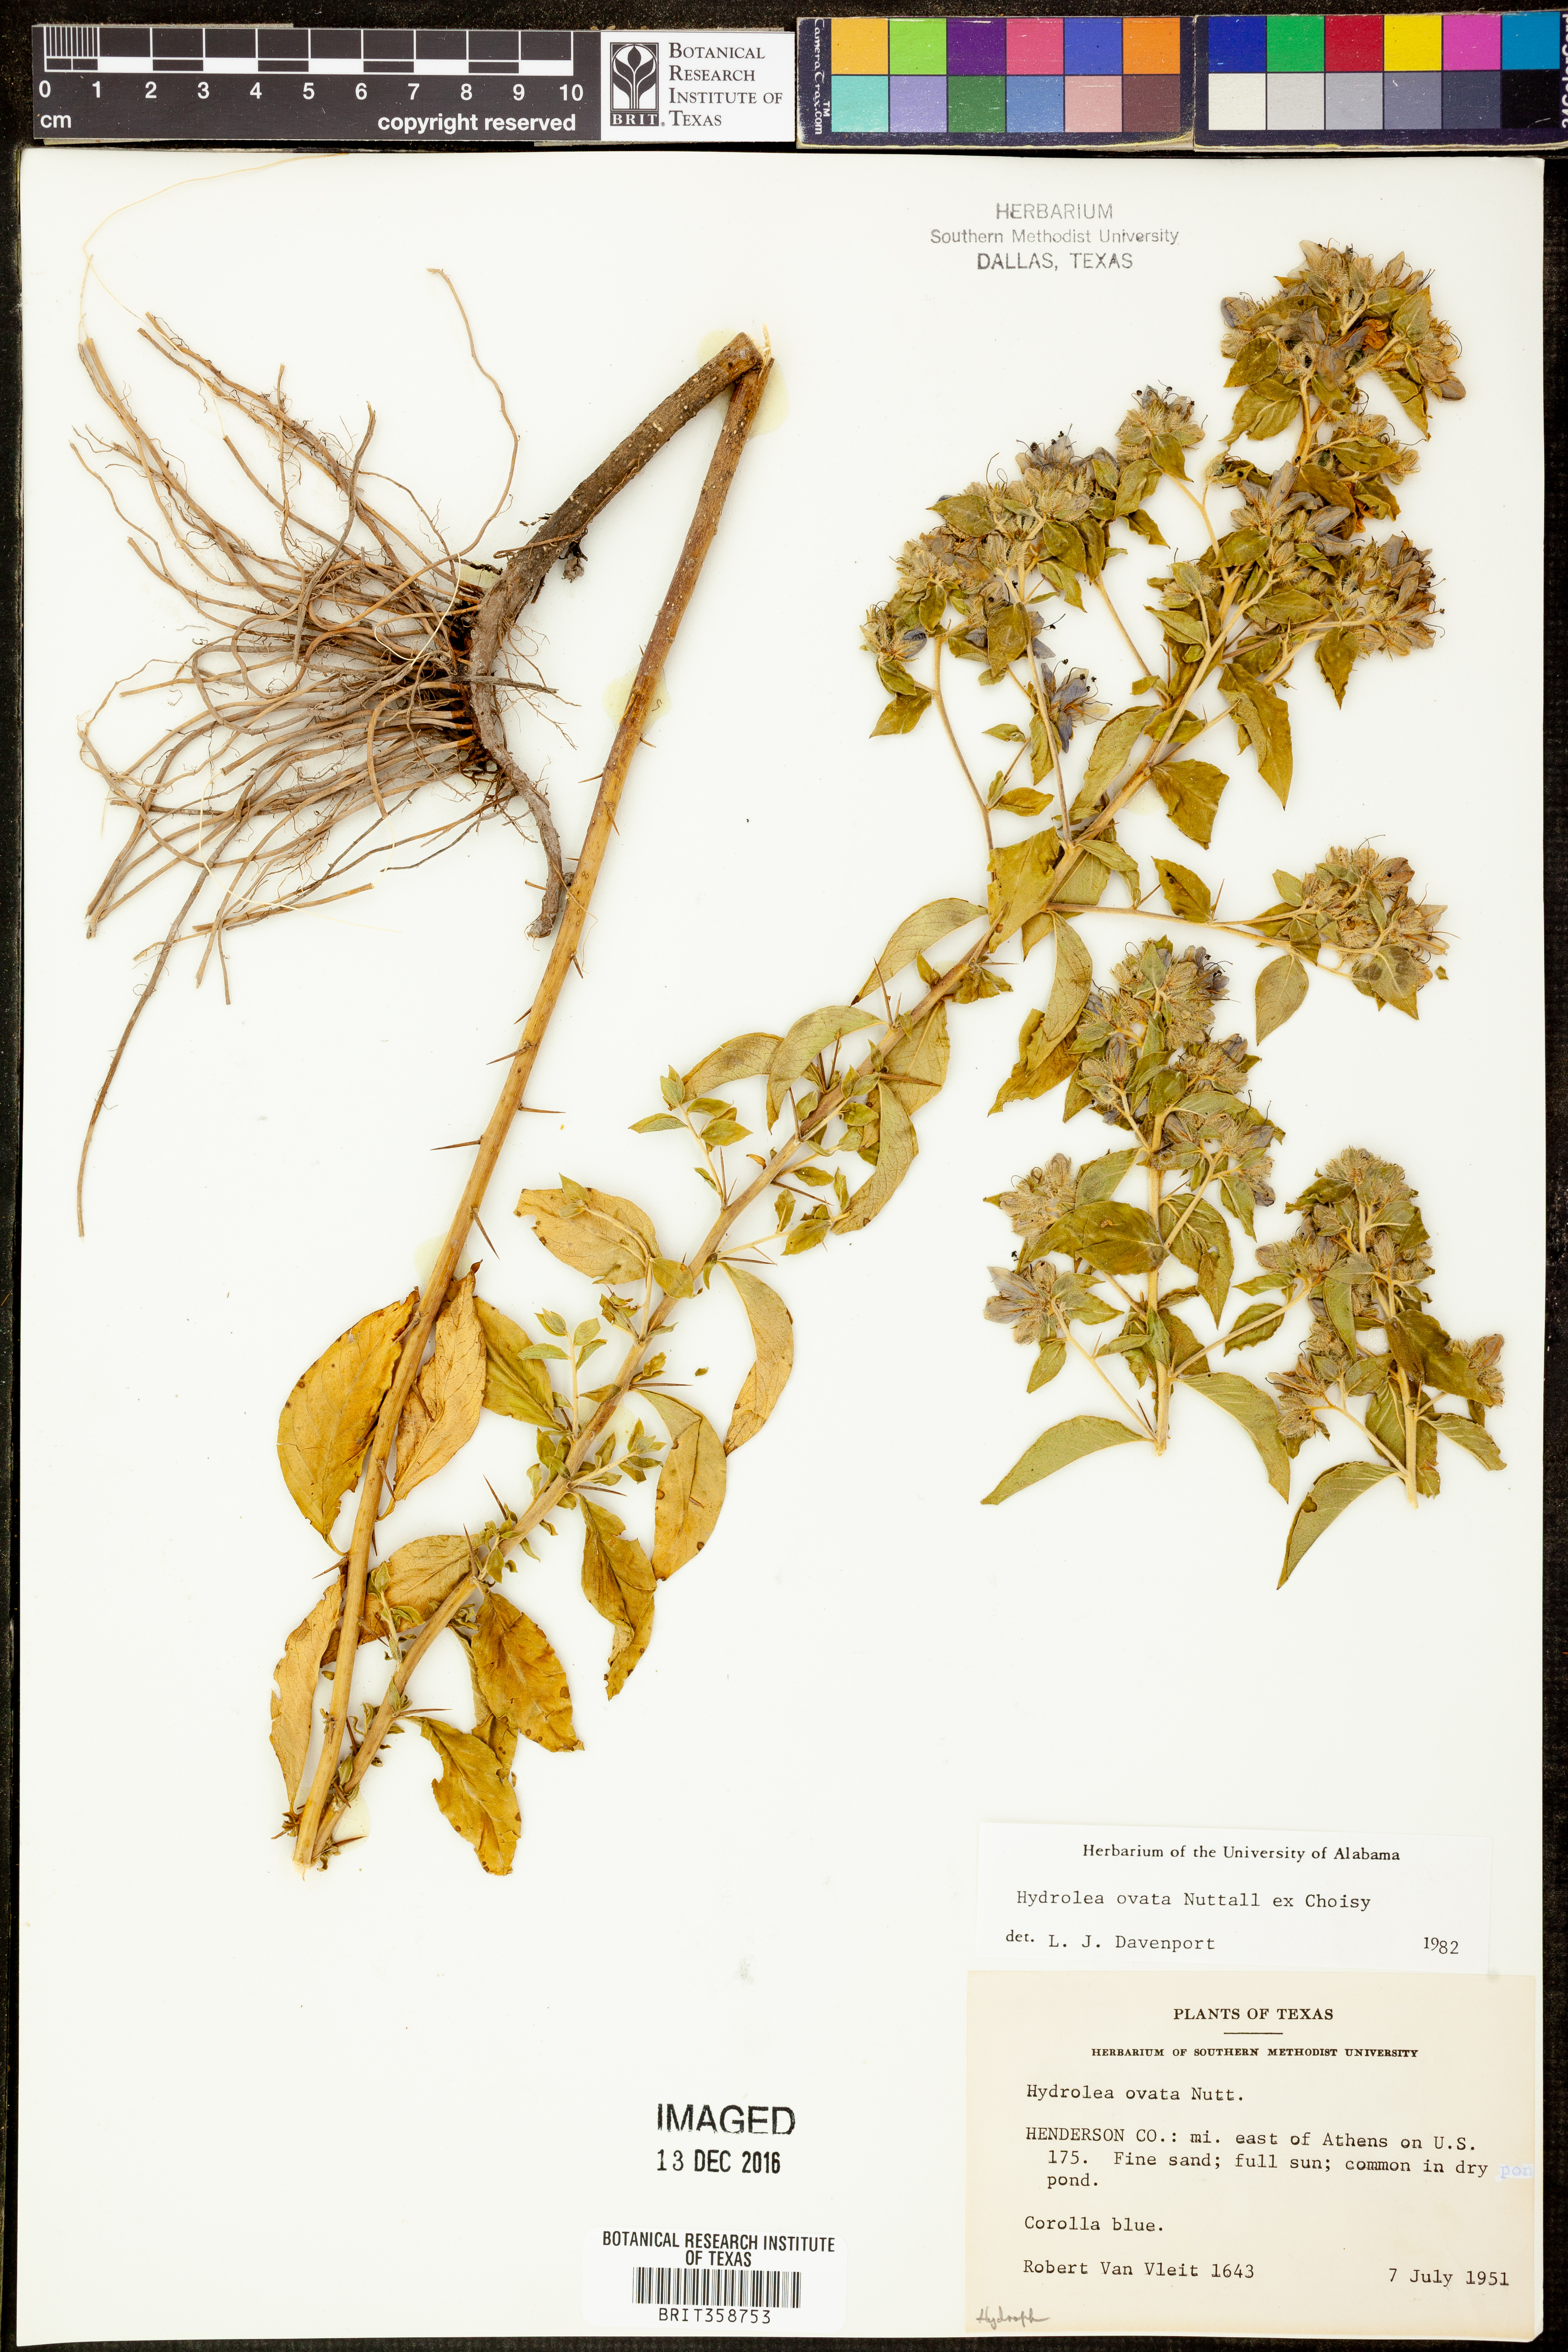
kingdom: Plantae
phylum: Tracheophyta
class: Magnoliopsida
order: Solanales
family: Hydroleaceae
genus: Hydrolea
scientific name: Hydrolea ovata
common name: Ovate false fiddleleaf
